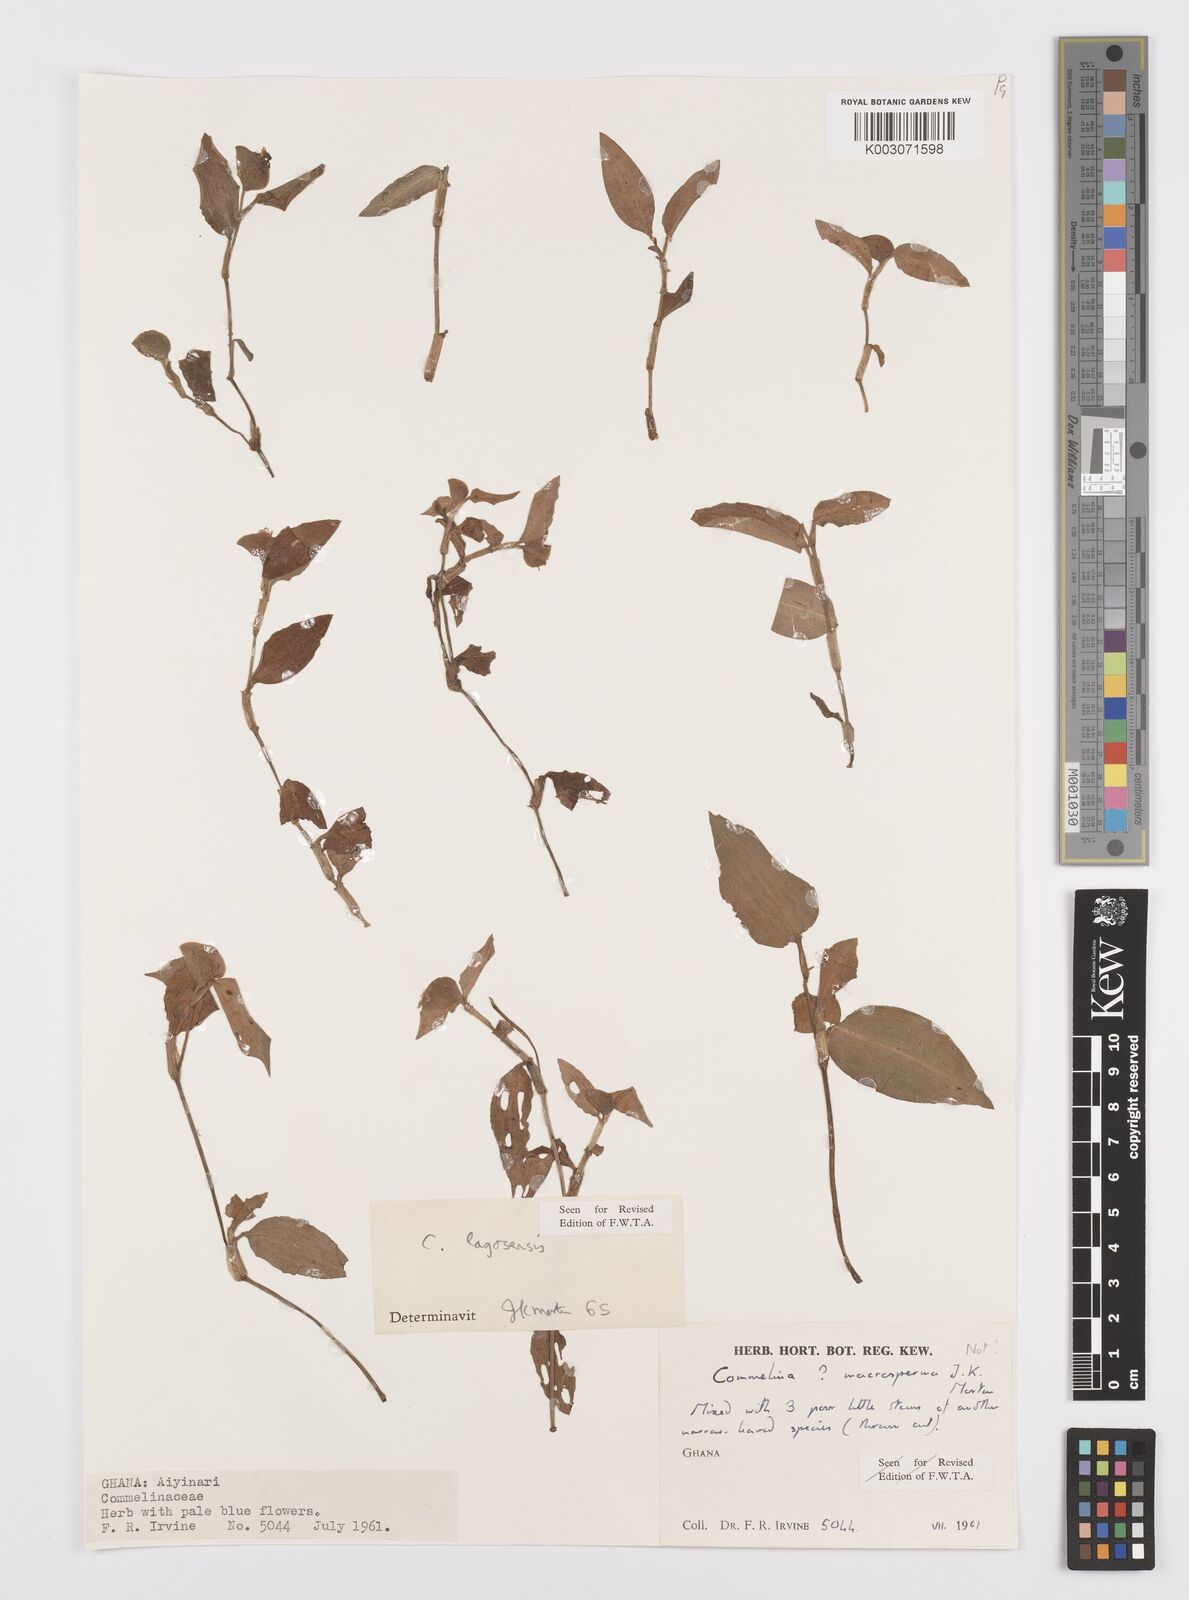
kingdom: Plantae
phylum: Tracheophyta
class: Liliopsida
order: Commelinales
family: Commelinaceae
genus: Commelina
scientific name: Commelina bracteosa
